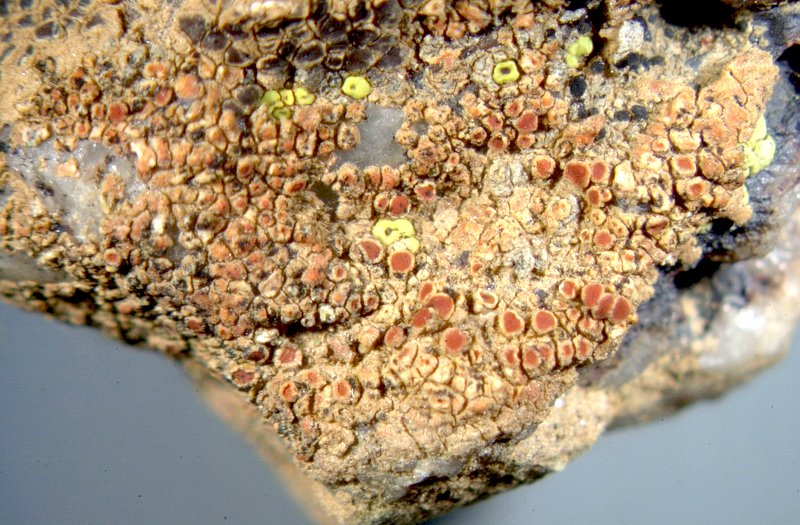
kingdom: Fungi
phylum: Ascomycota
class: Lecanoromycetes
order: Acarosporales
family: Acarosporaceae
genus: Acarospora
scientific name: Acarospora strigata
